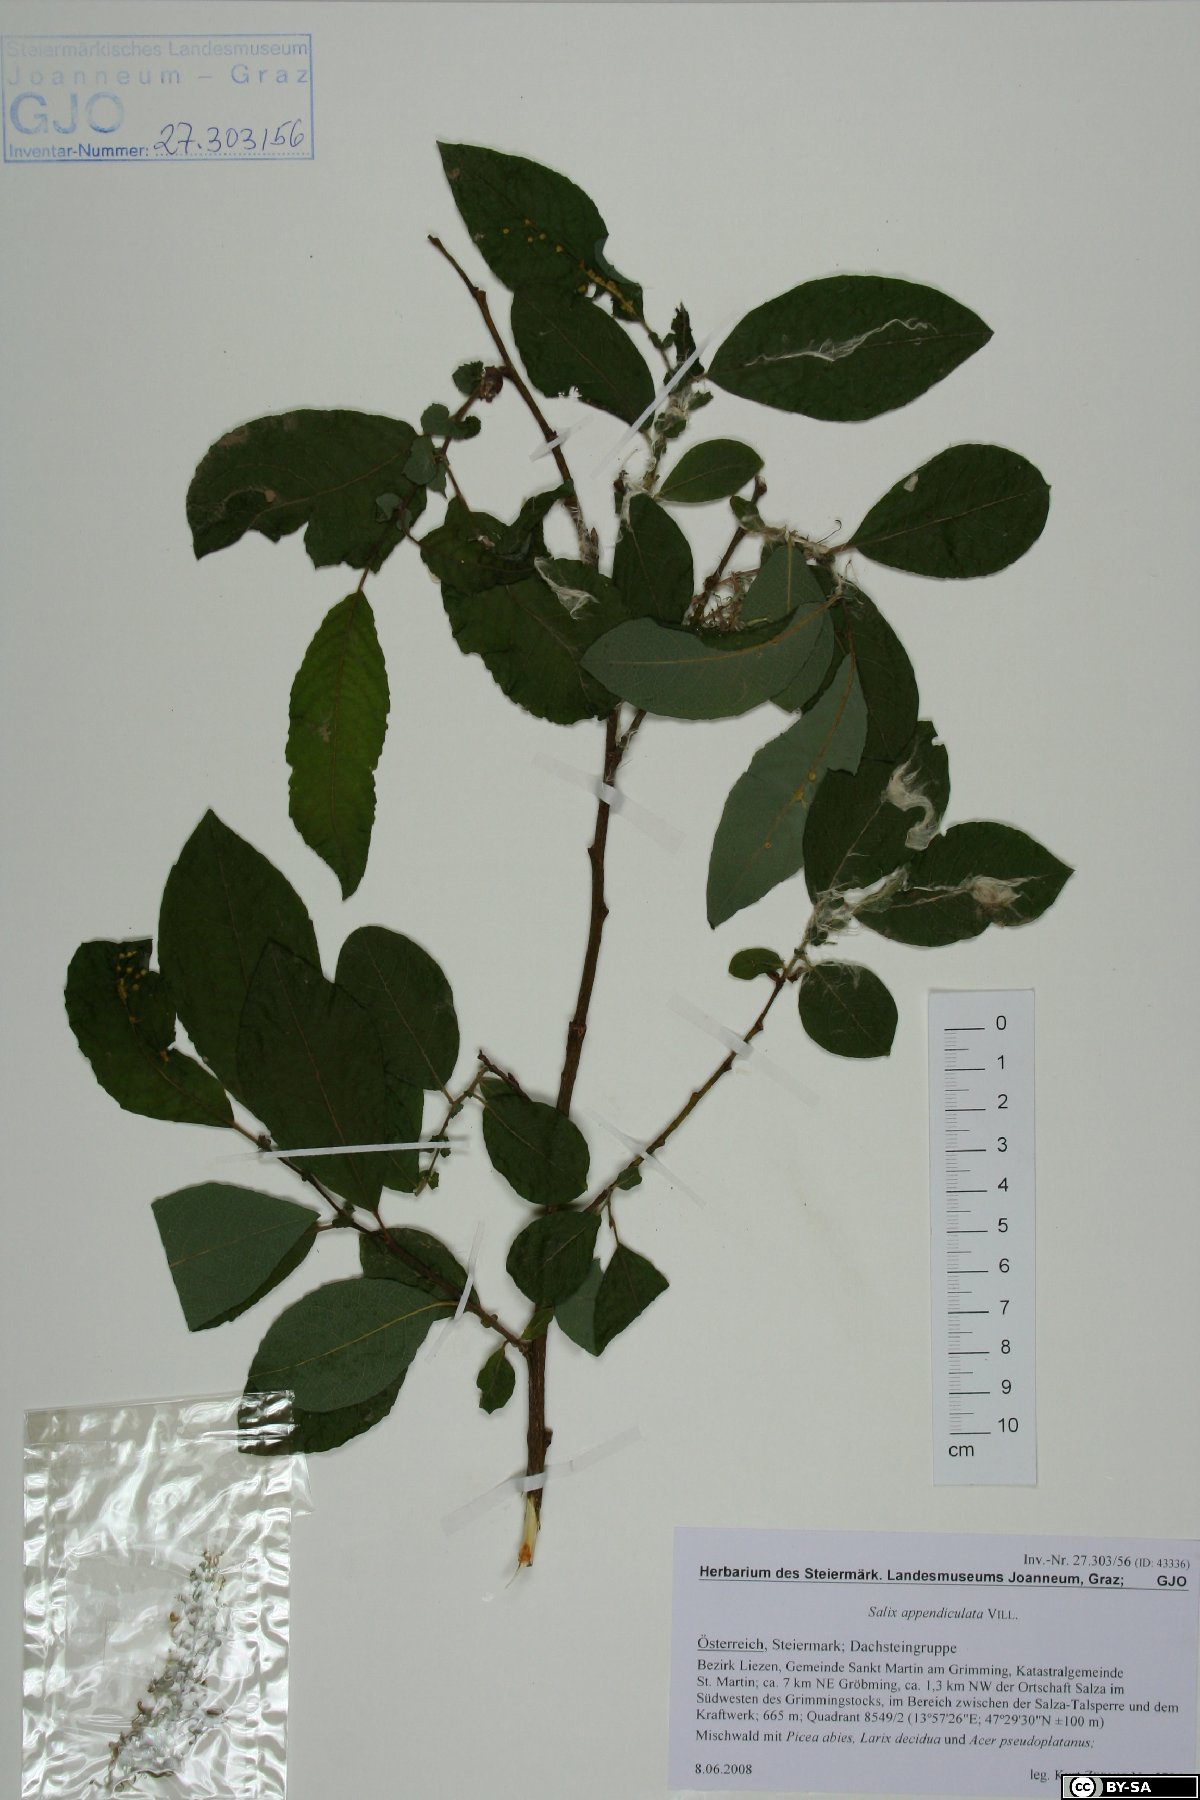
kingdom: Plantae
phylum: Tracheophyta
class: Magnoliopsida
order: Malpighiales
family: Salicaceae
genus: Salix
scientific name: Salix appendiculata
